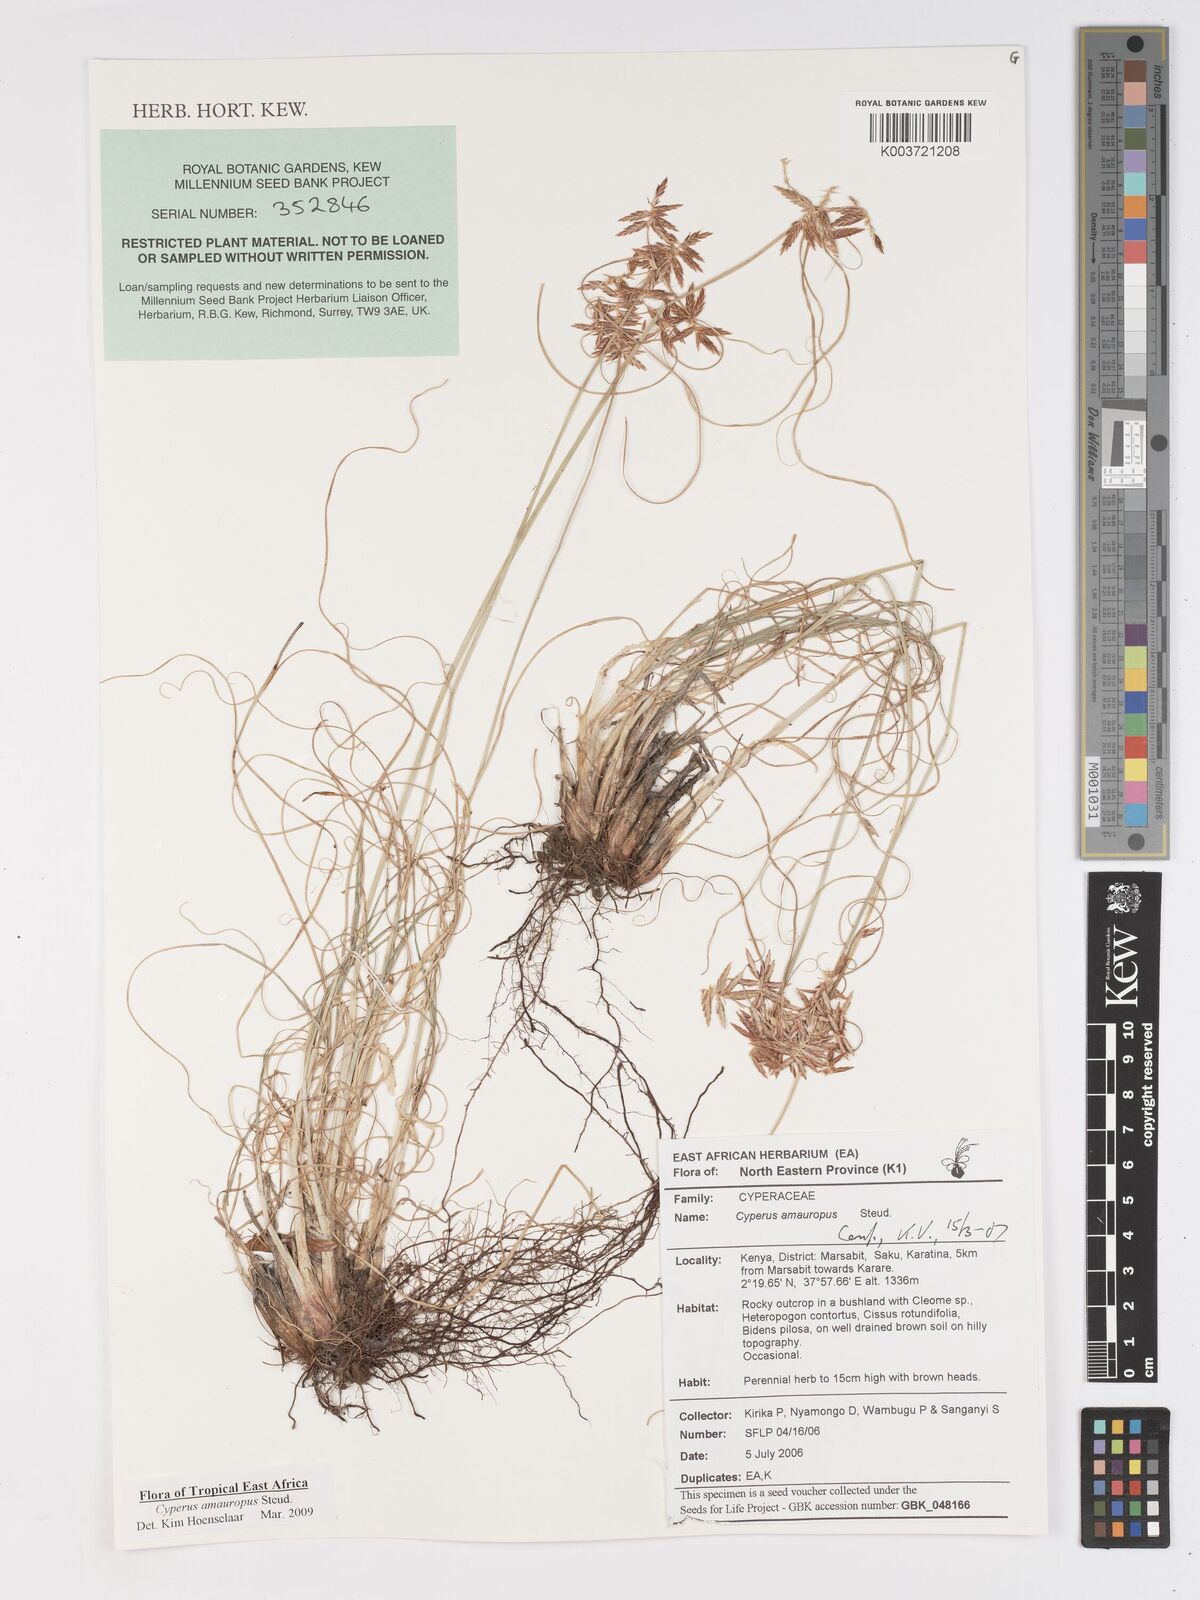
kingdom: Plantae
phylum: Tracheophyta
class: Liliopsida
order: Poales
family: Cyperaceae
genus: Cyperus
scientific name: Cyperus amauropus
